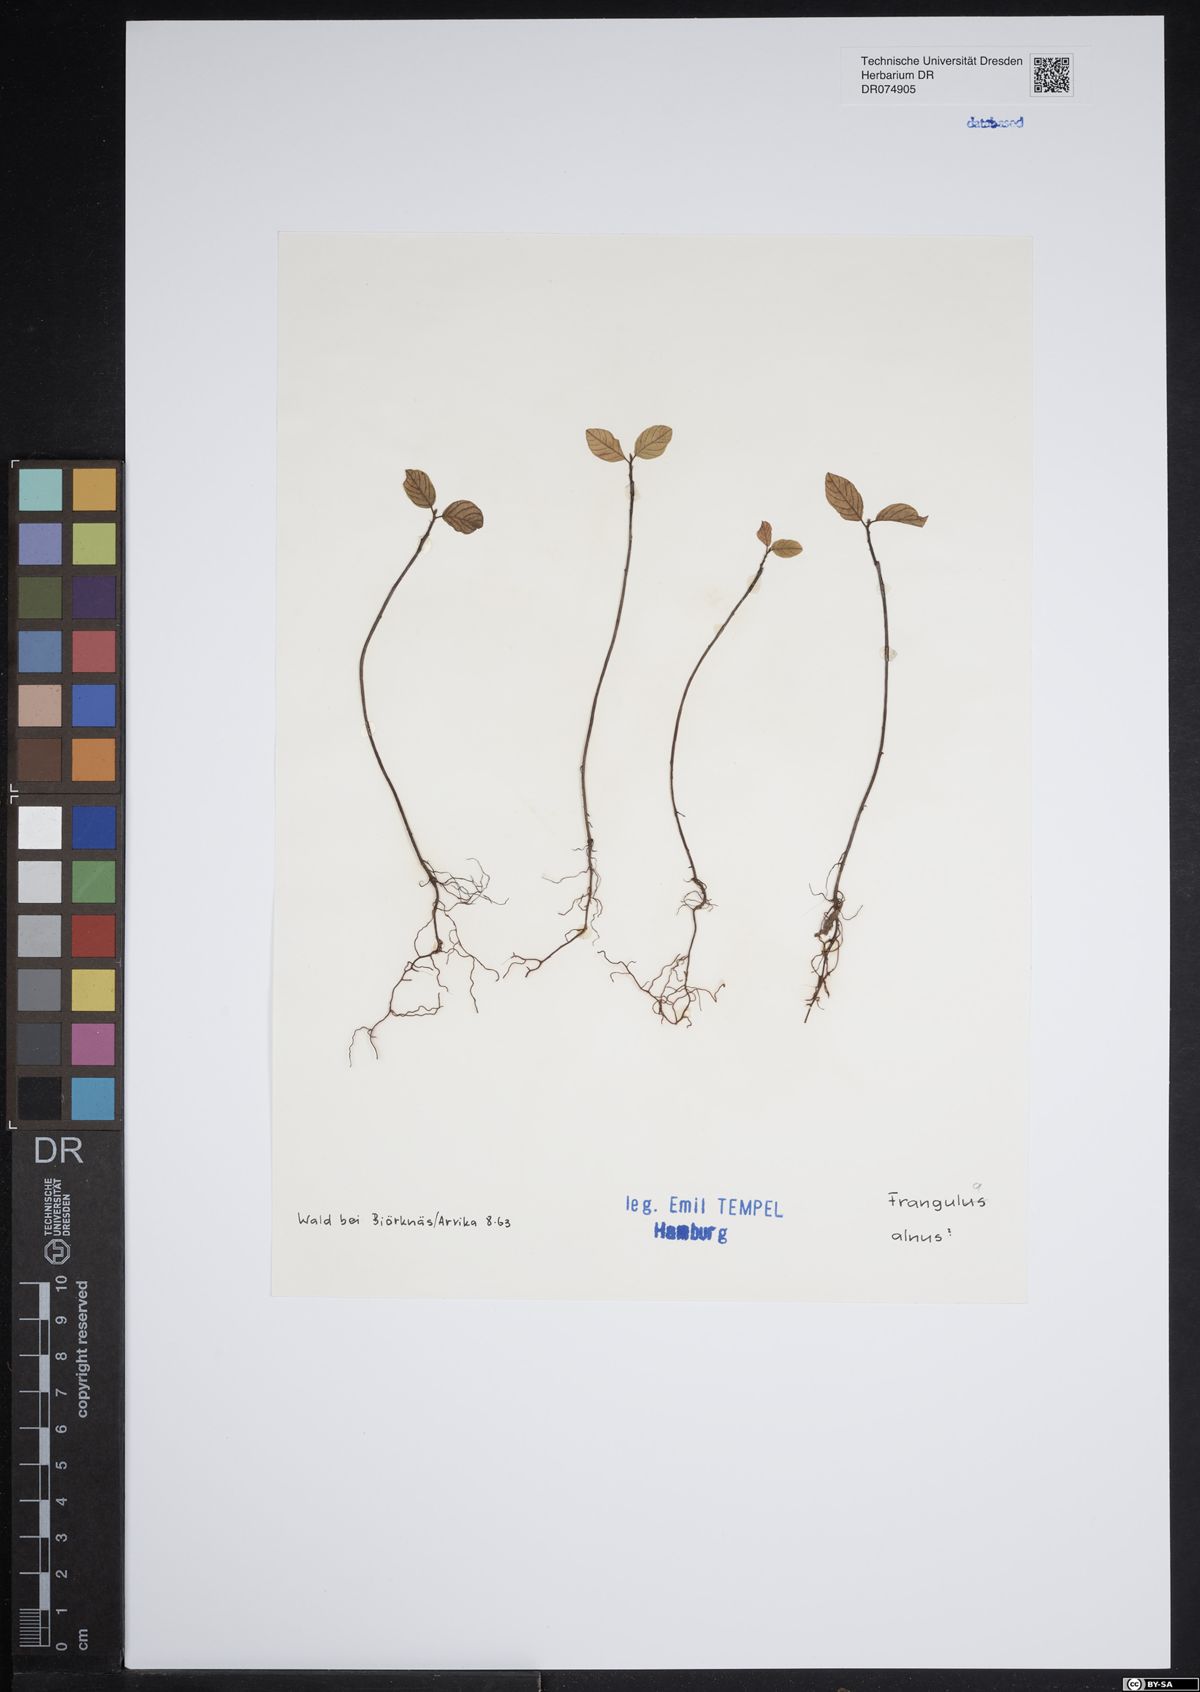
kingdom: Plantae
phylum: Tracheophyta
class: Magnoliopsida
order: Rosales
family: Rhamnaceae
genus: Frangula
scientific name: Frangula alnus
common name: Alder buckthorn
